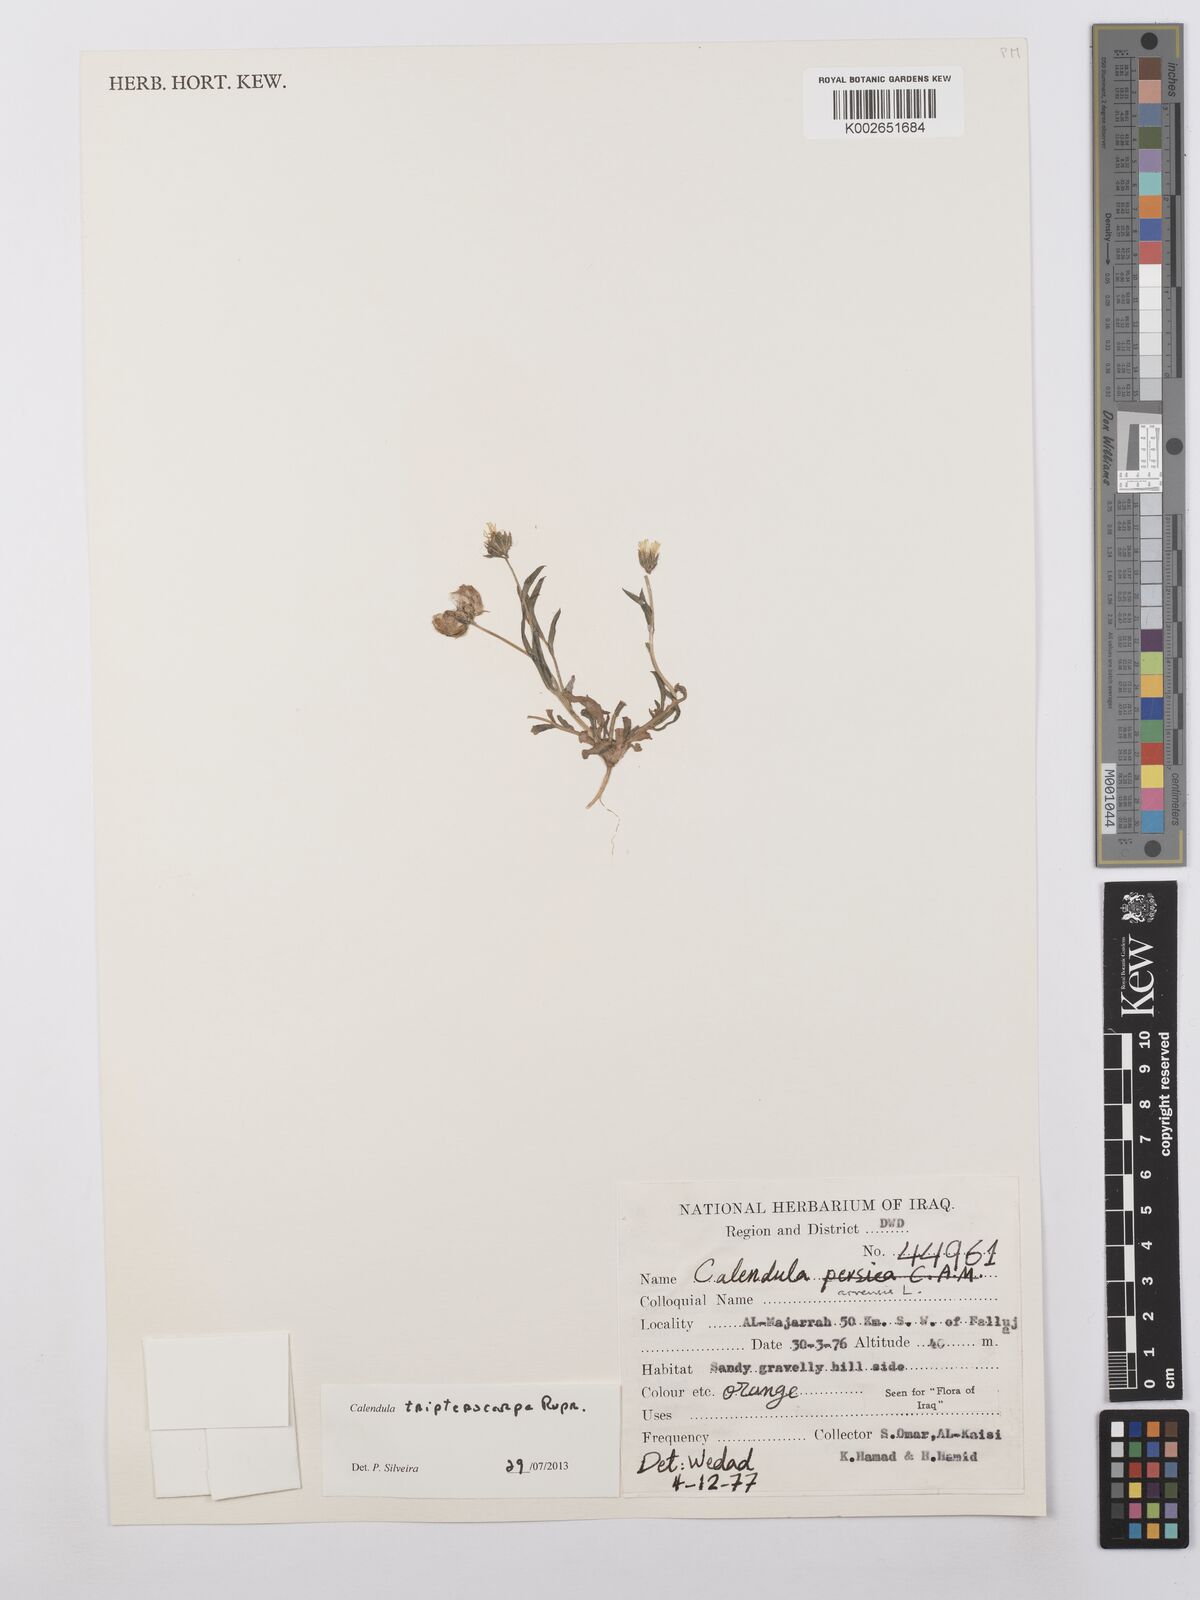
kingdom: Plantae
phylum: Tracheophyta
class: Magnoliopsida
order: Asterales
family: Asteraceae
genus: Calendula
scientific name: Calendula tripterocarpa
